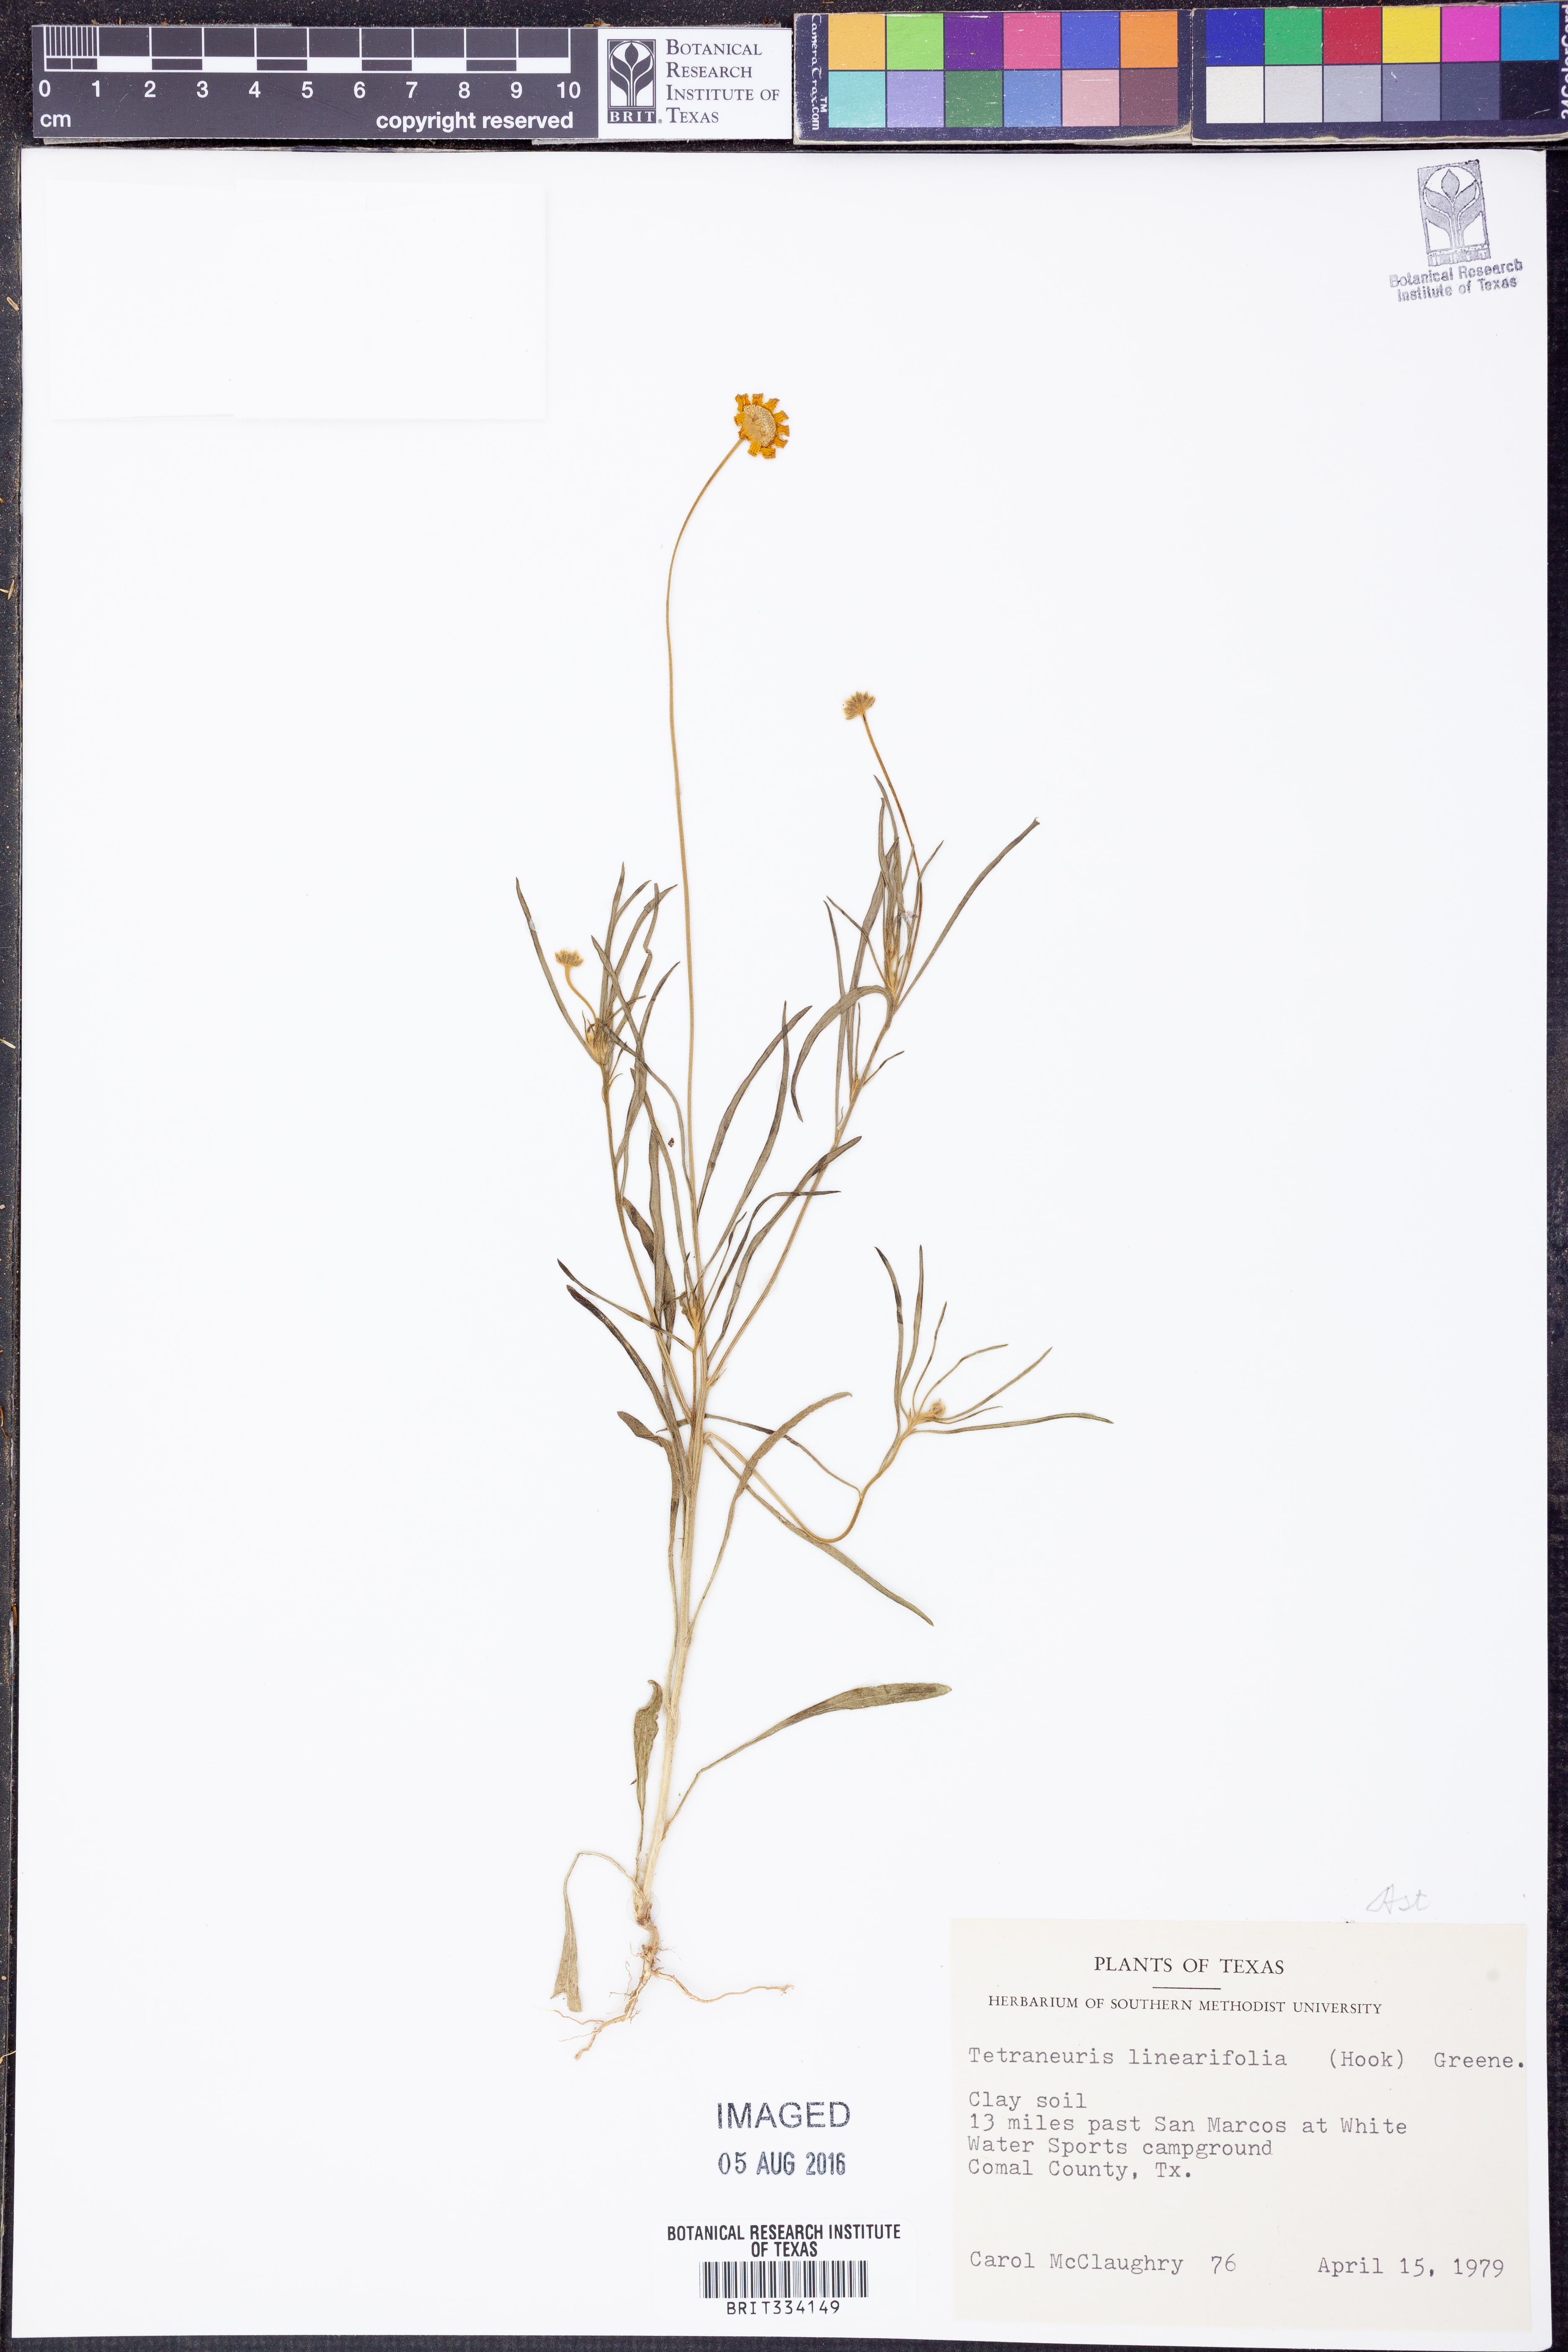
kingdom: Plantae
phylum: Tracheophyta
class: Magnoliopsida
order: Asterales
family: Asteraceae
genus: Tetraneuris
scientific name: Tetraneuris linearifolia
